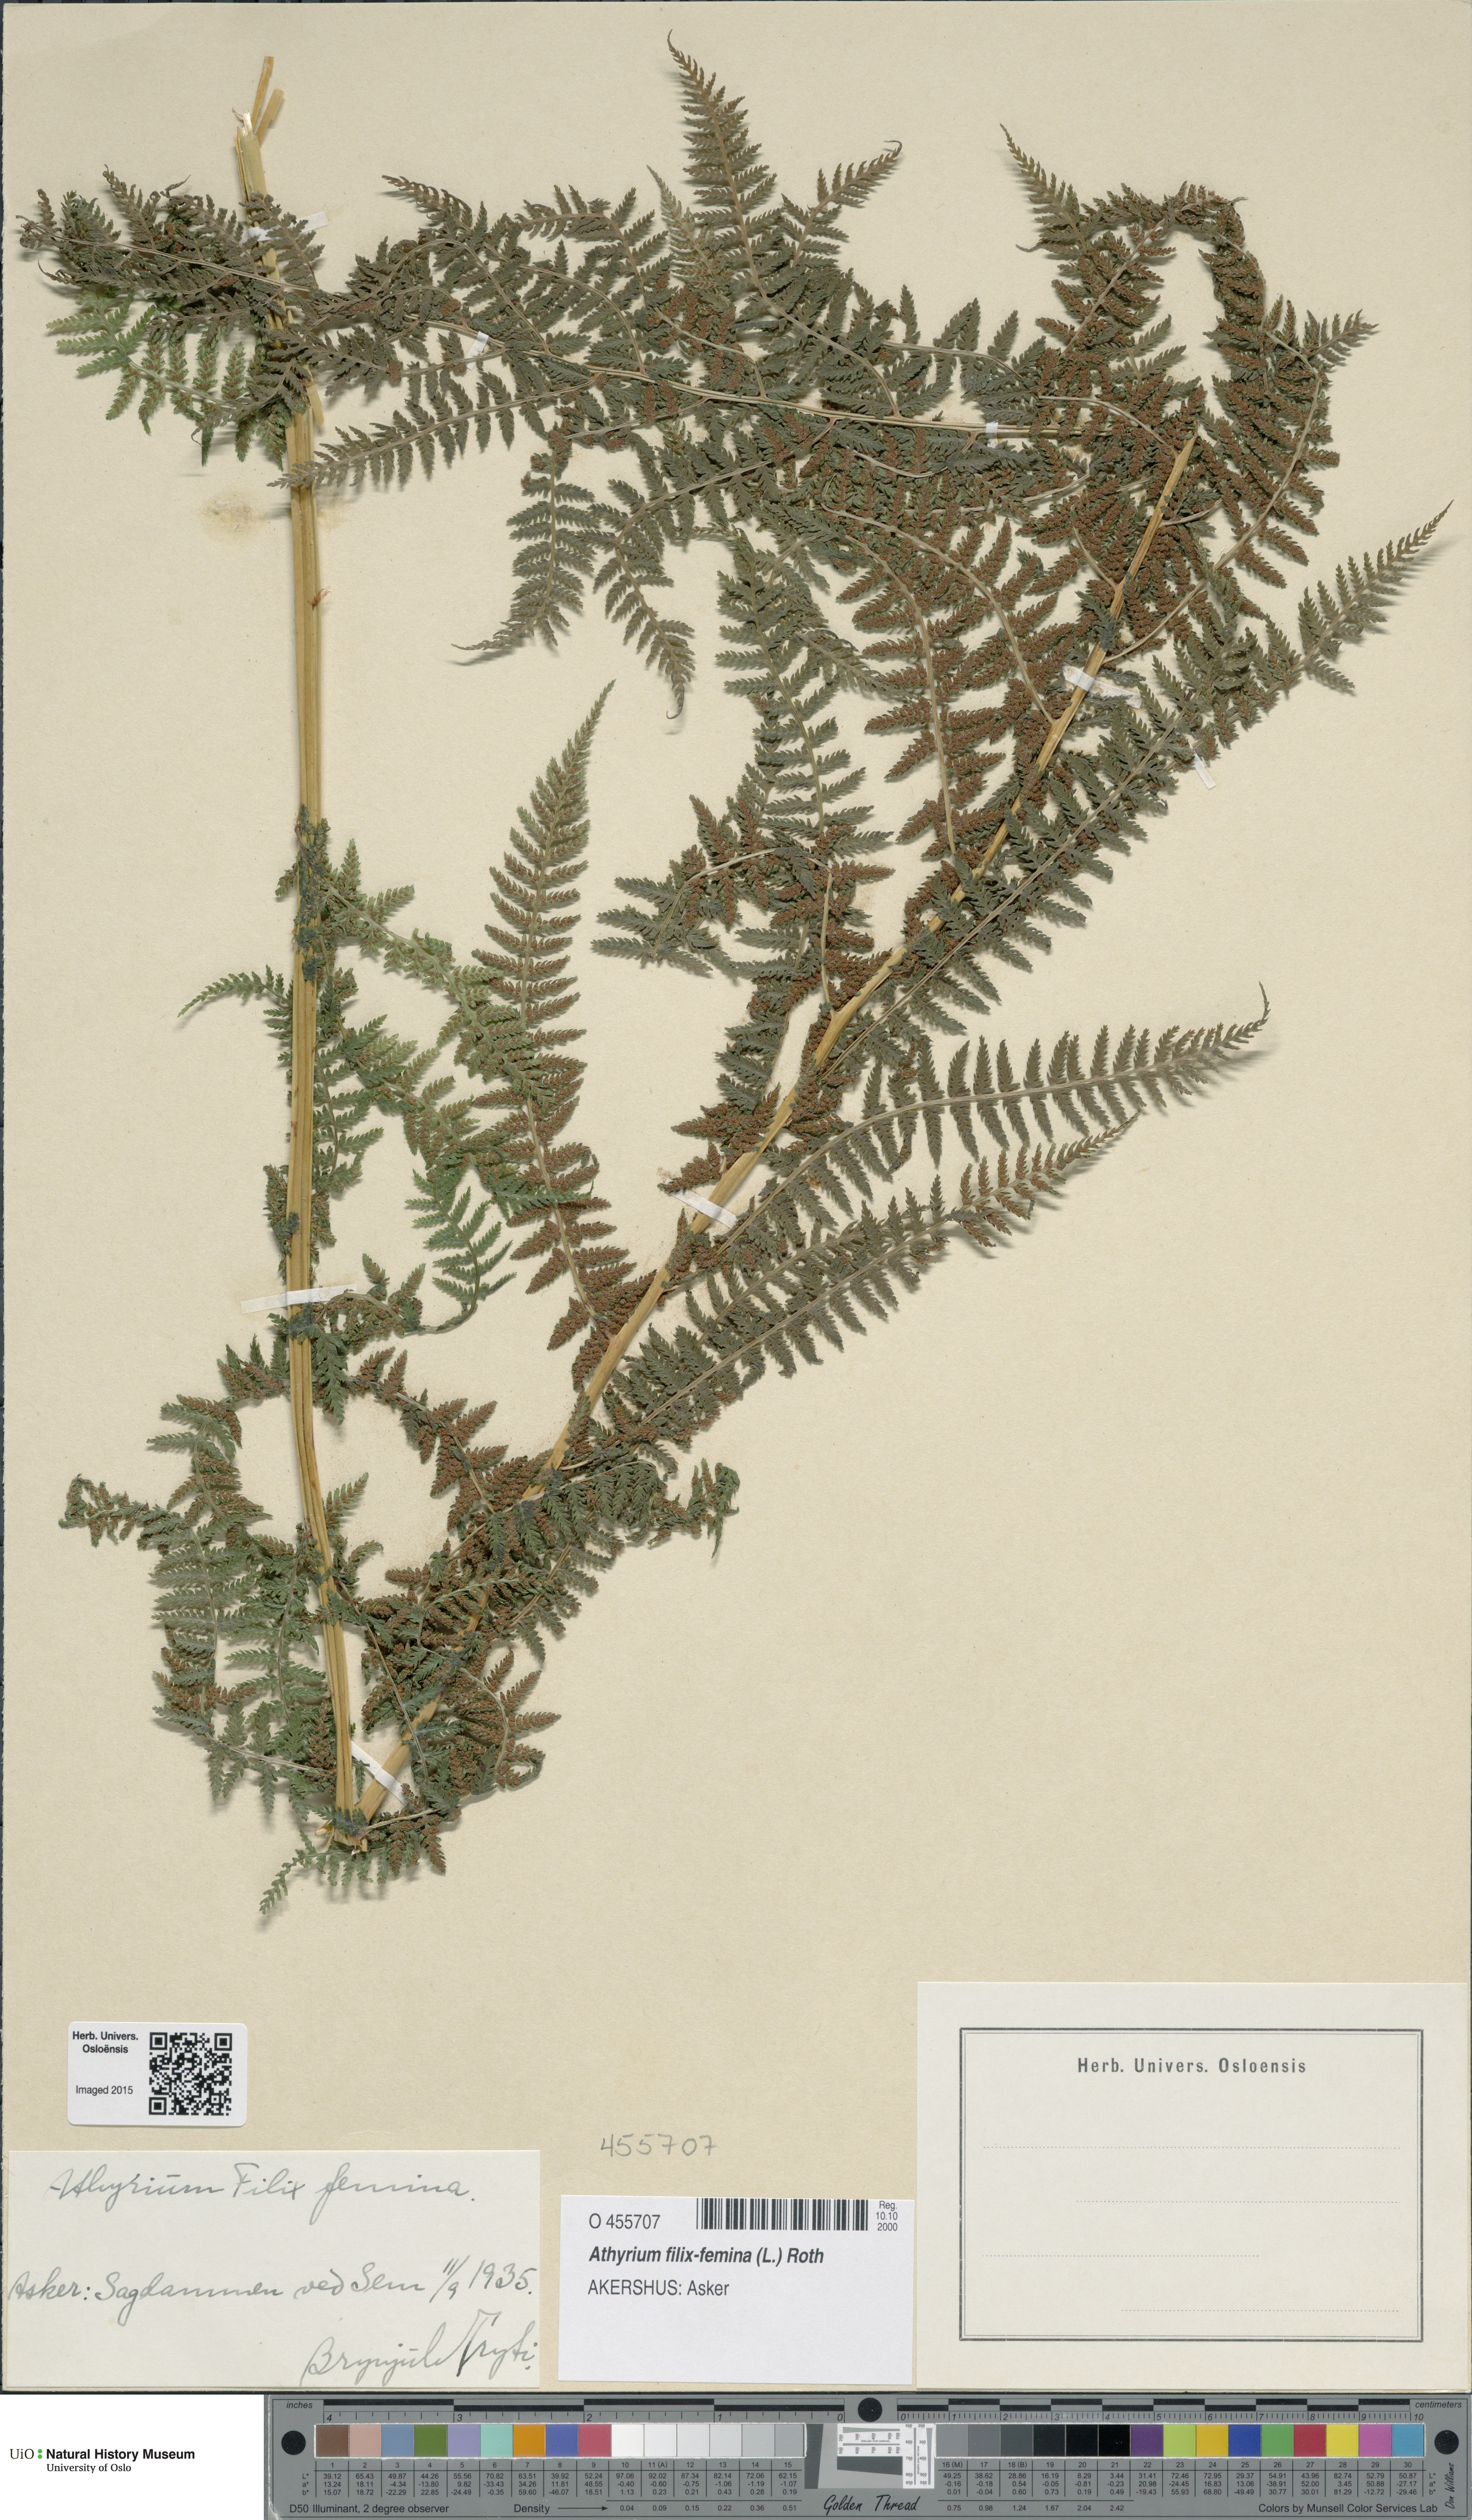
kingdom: Plantae
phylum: Tracheophyta
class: Polypodiopsida
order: Polypodiales
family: Athyriaceae
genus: Athyrium
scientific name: Athyrium filix-femina
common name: Lady fern
